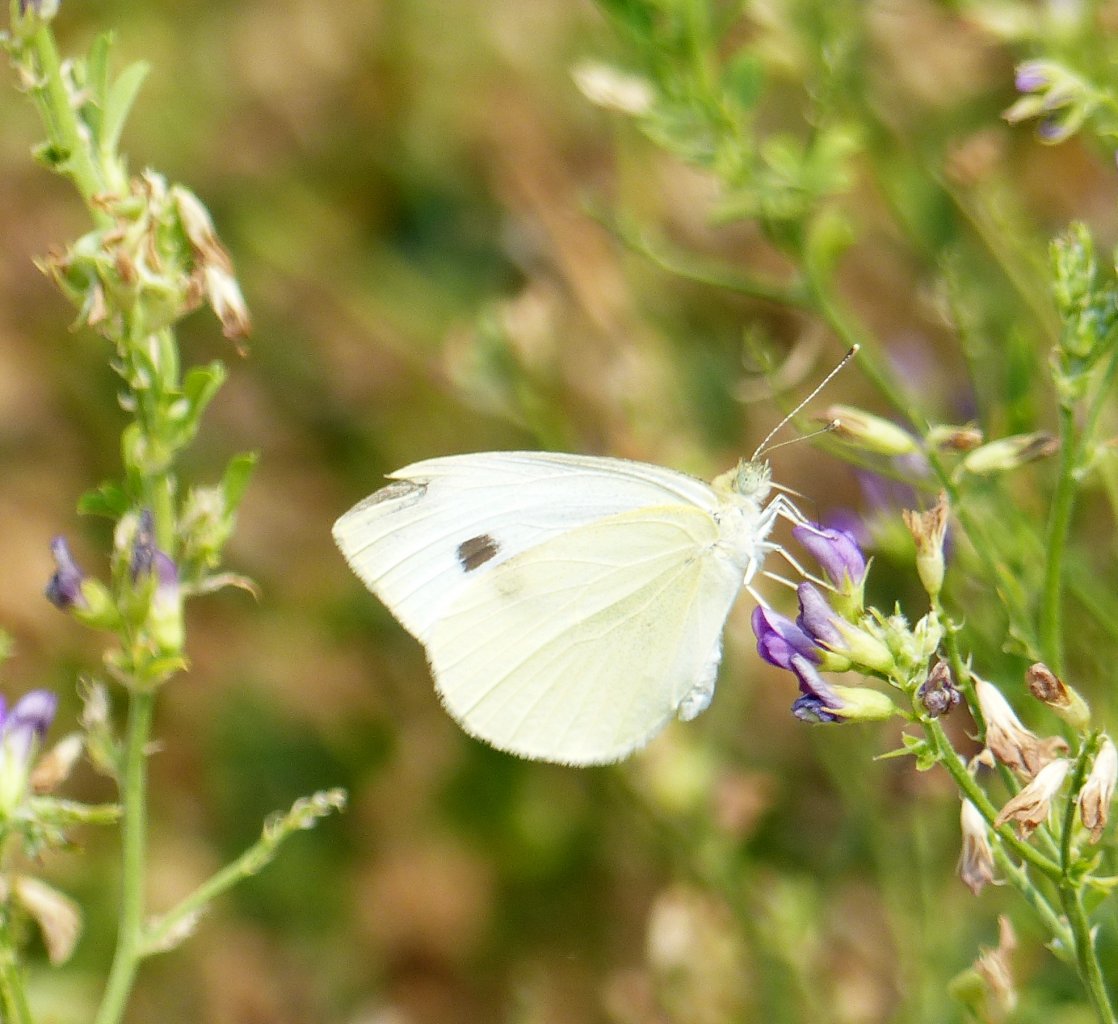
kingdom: Animalia
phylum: Arthropoda
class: Insecta
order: Lepidoptera
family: Pieridae
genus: Pieris
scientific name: Pieris rapae
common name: Cabbage White
